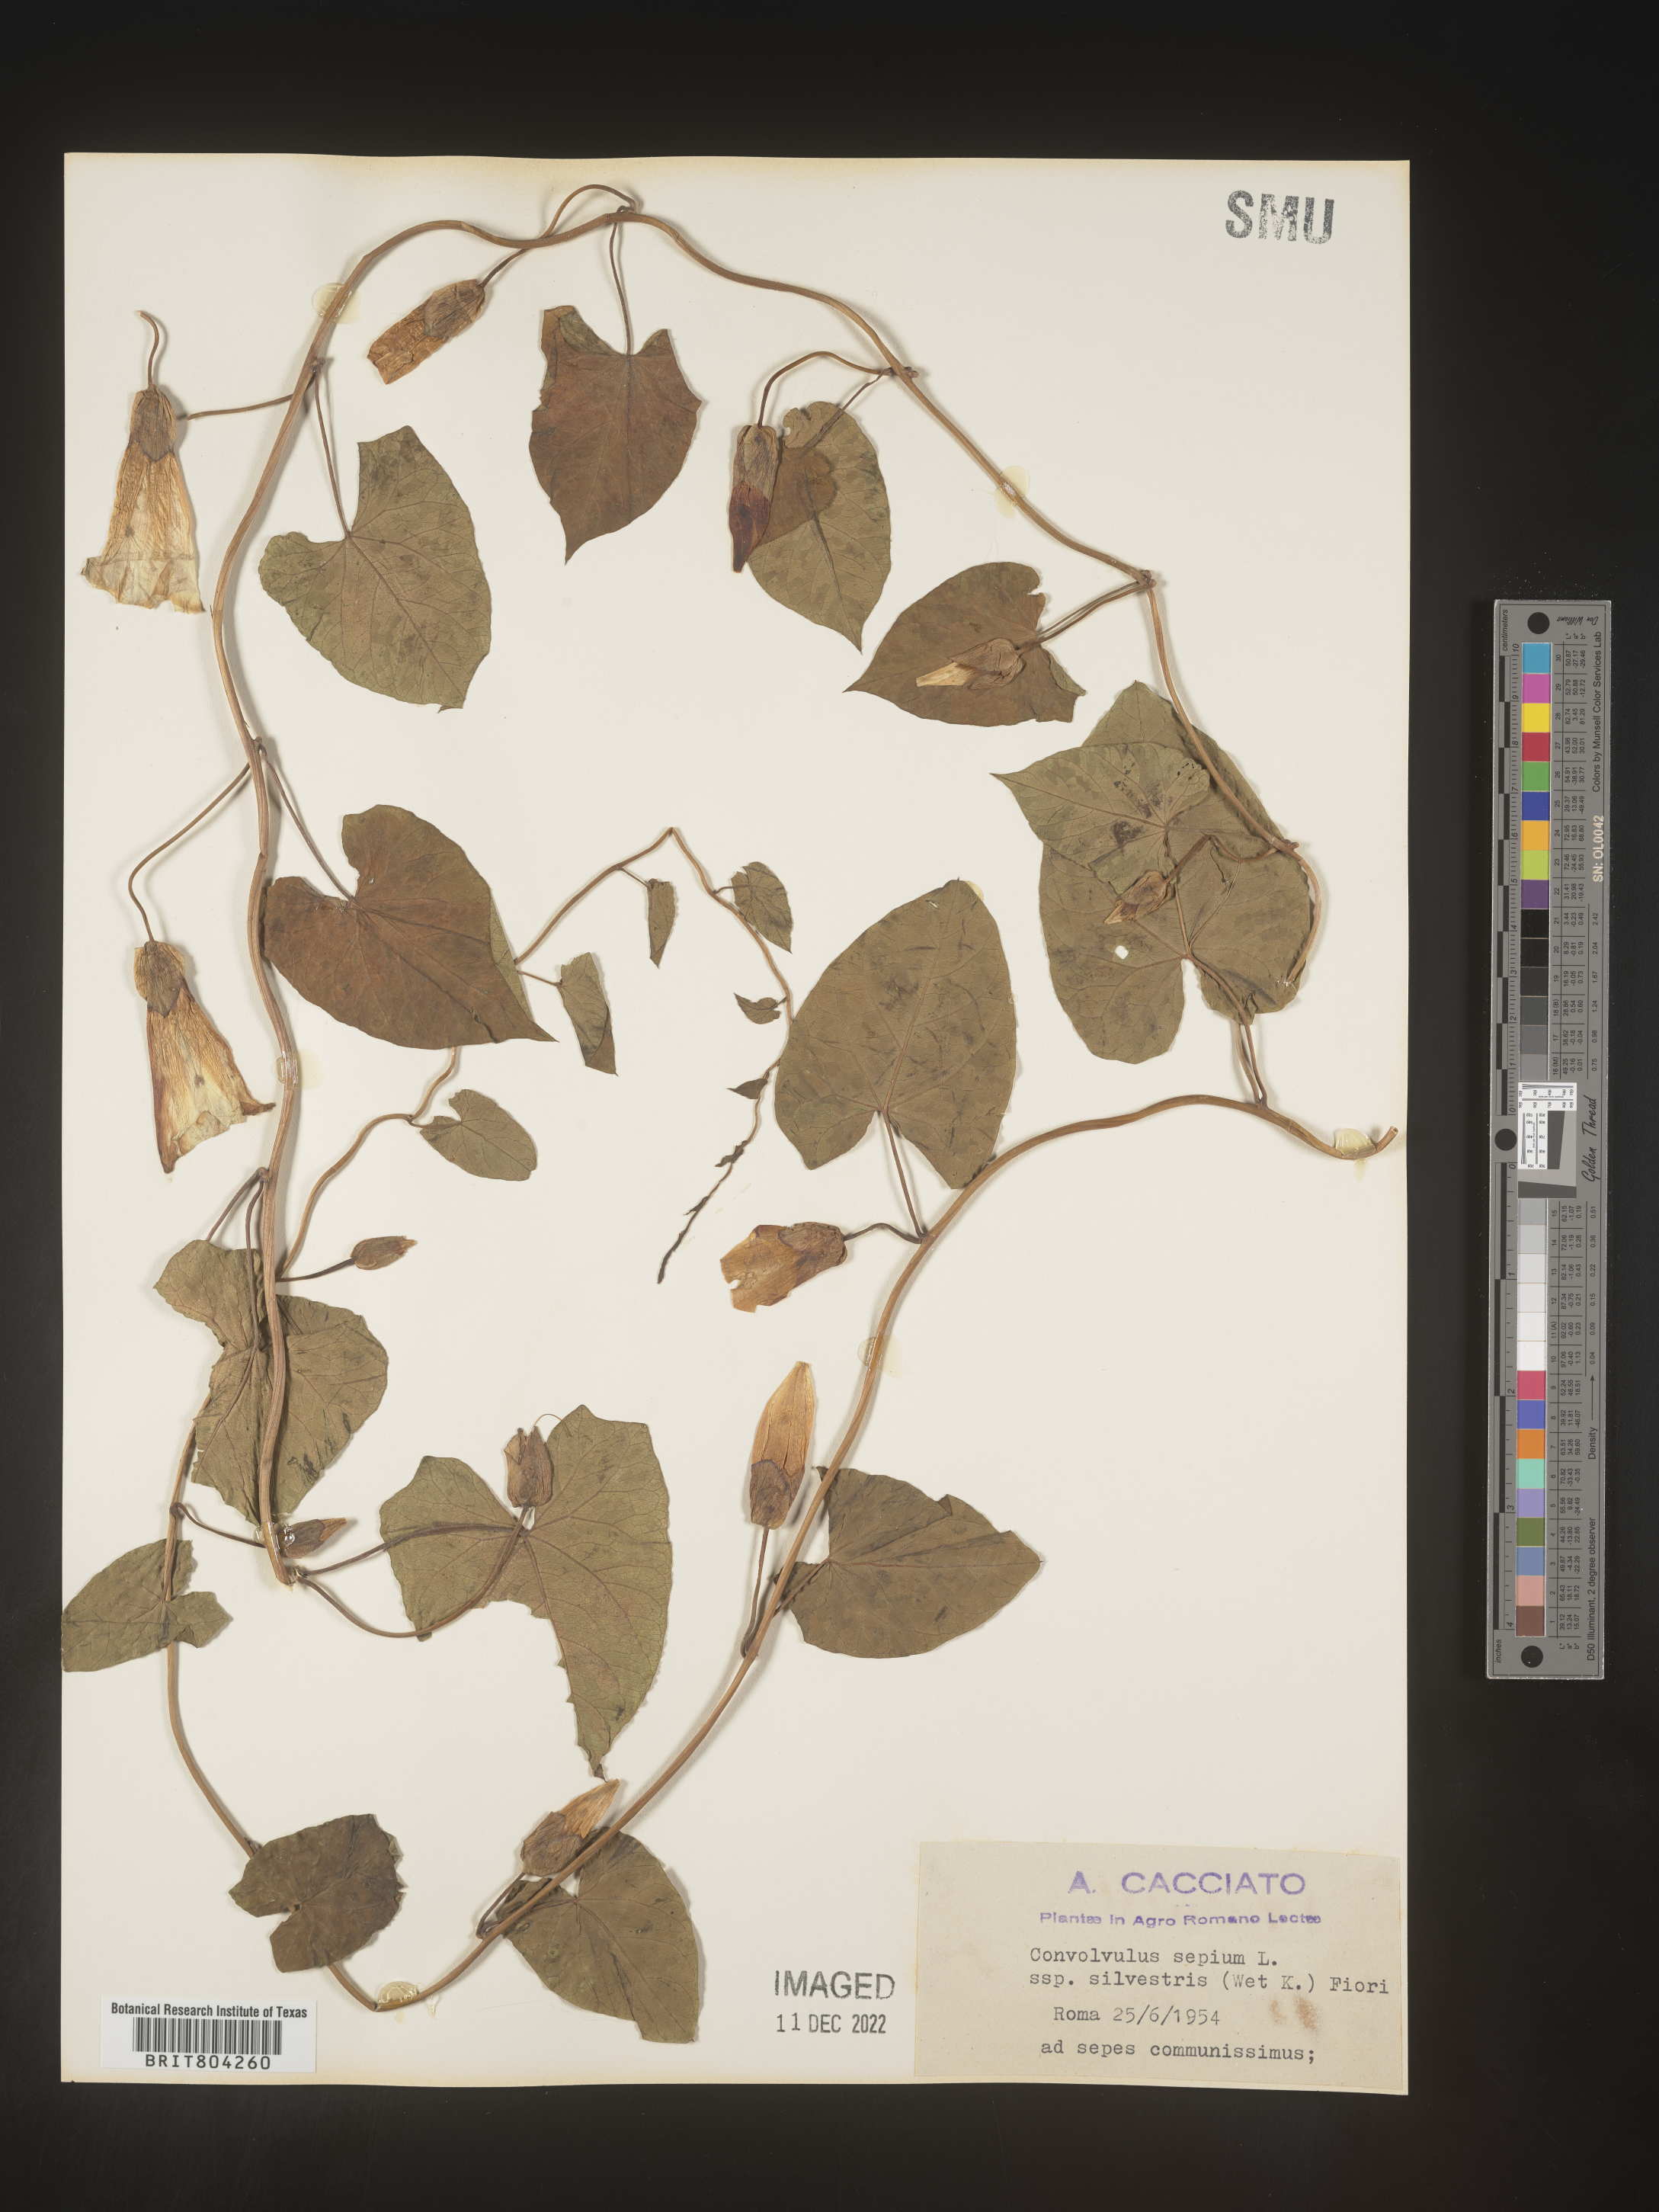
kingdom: Plantae
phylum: Tracheophyta
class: Magnoliopsida
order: Solanales
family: Convolvulaceae
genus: Calystegia
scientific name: Calystegia
